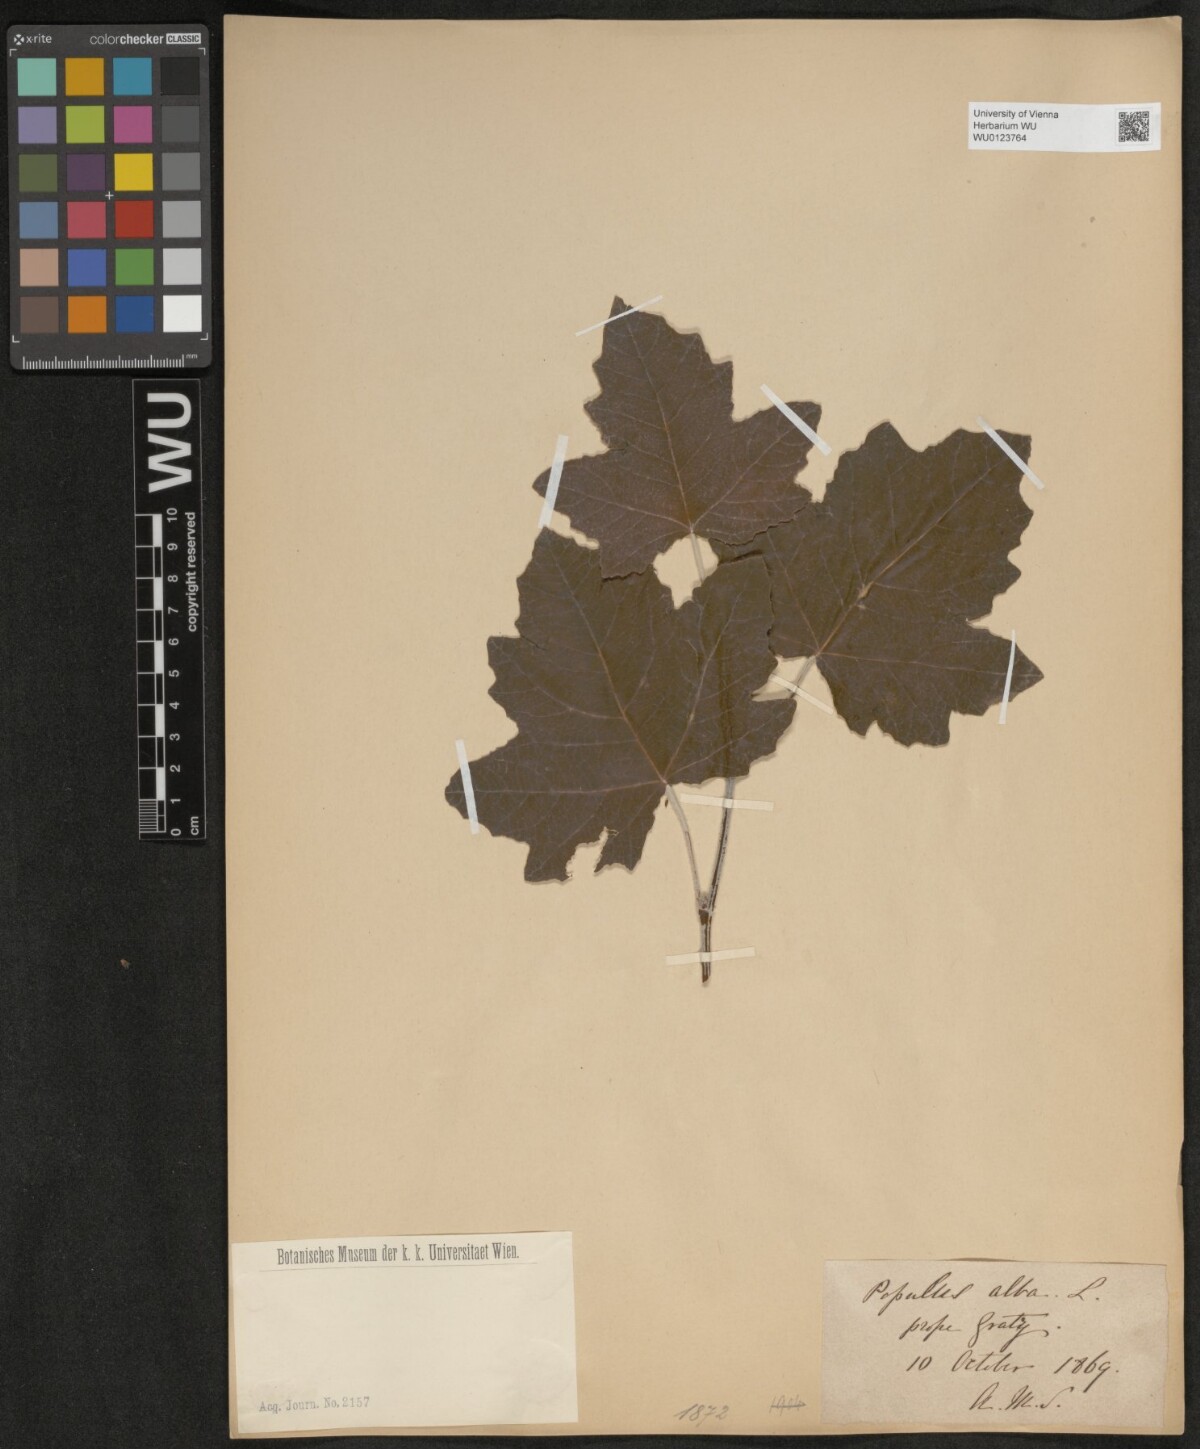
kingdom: Plantae
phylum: Tracheophyta
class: Magnoliopsida
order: Malpighiales
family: Salicaceae
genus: Populus
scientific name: Populus alba
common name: White poplar
